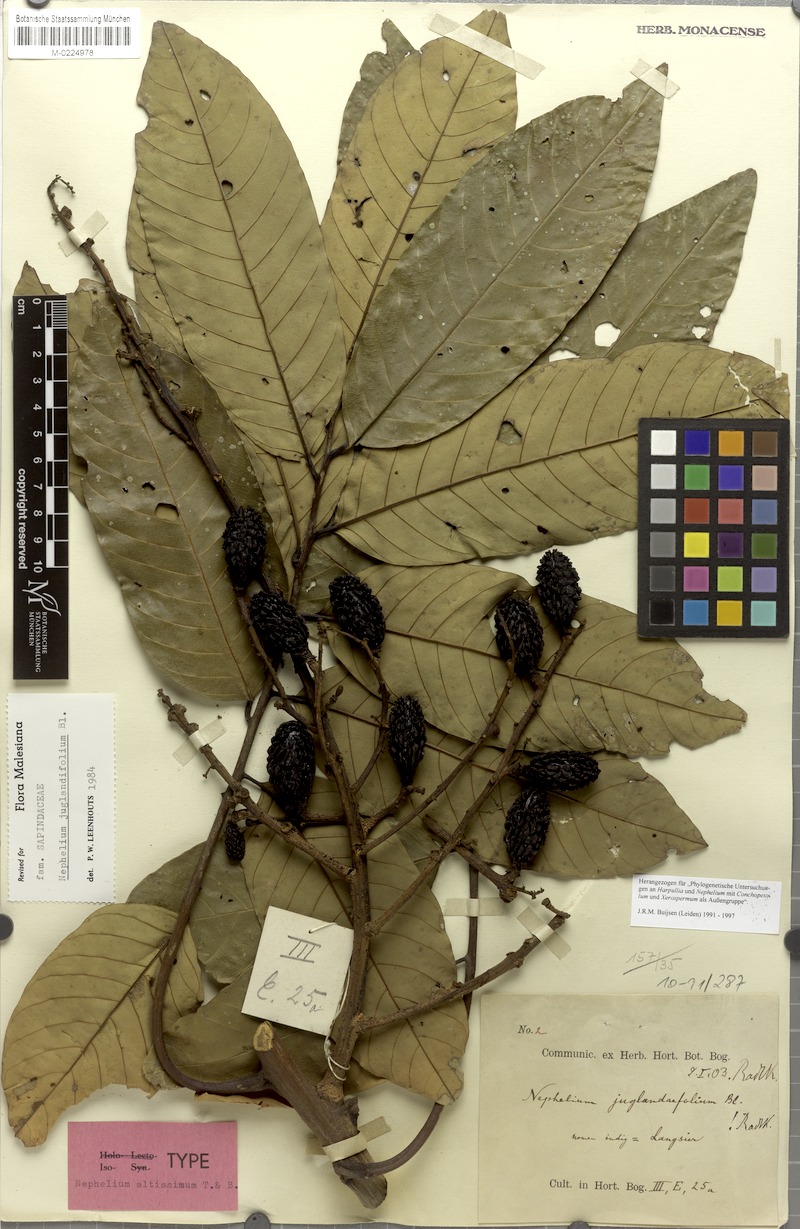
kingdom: Plantae
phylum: Tracheophyta
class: Magnoliopsida
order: Sapindales
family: Sapindaceae
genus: Nephelium
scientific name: Nephelium juglandifolium
